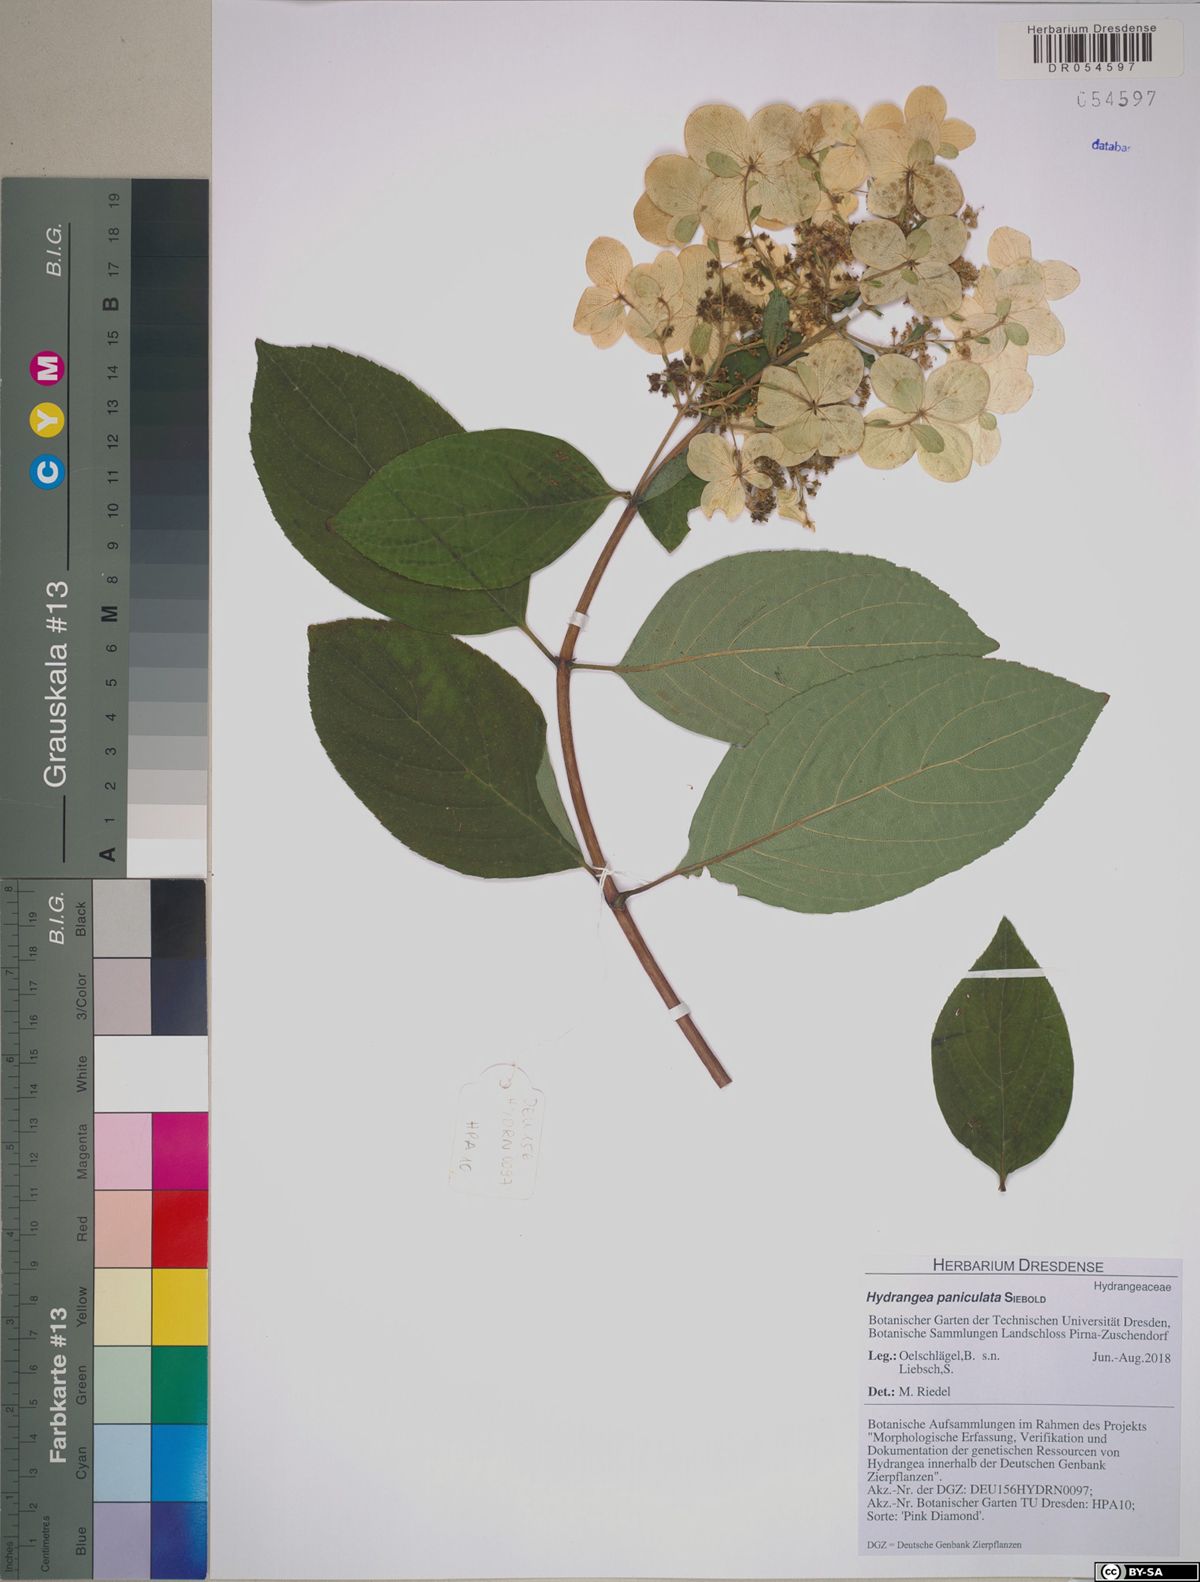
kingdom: Plantae
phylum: Tracheophyta
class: Magnoliopsida
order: Cornales
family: Hydrangeaceae
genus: Hydrangea
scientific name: Hydrangea paniculata
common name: Panicled hydrangea
